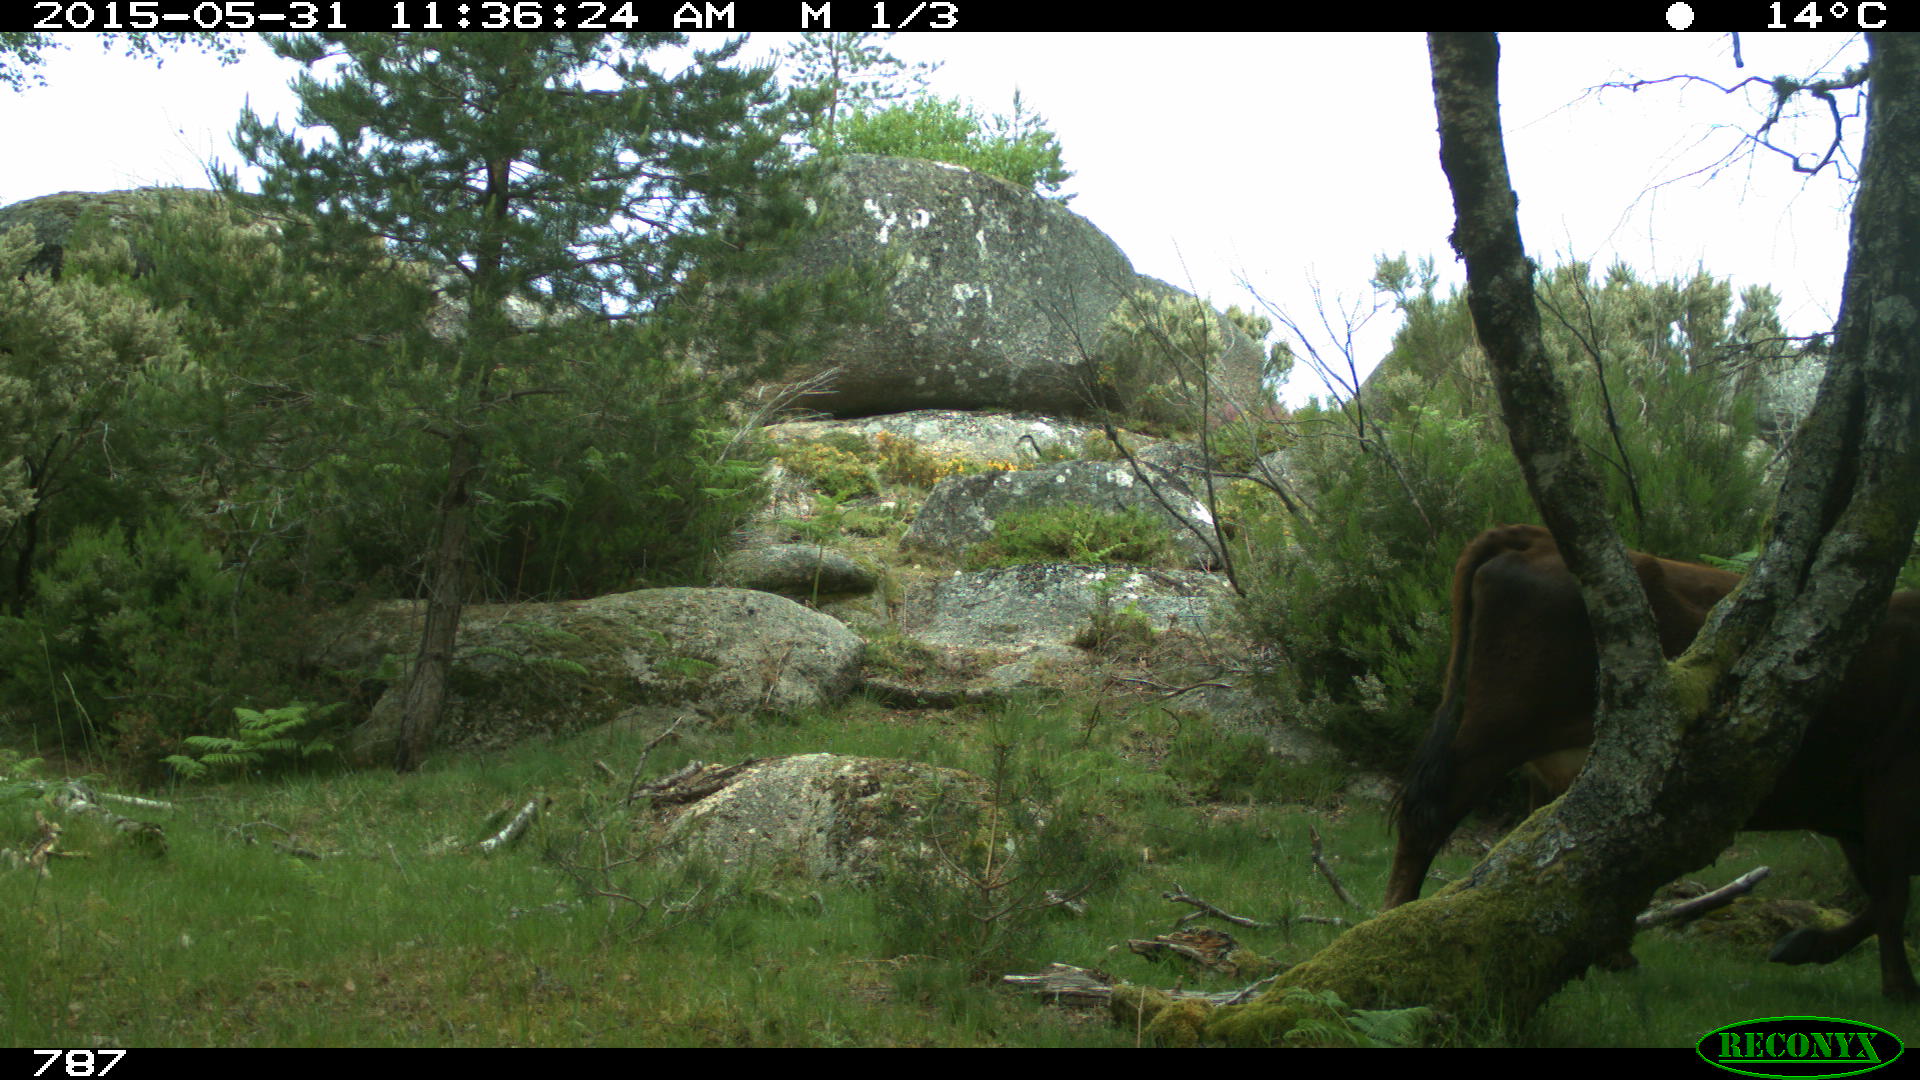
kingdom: Animalia
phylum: Chordata
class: Mammalia
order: Artiodactyla
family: Bovidae
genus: Bos
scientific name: Bos taurus
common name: Domesticated cattle
